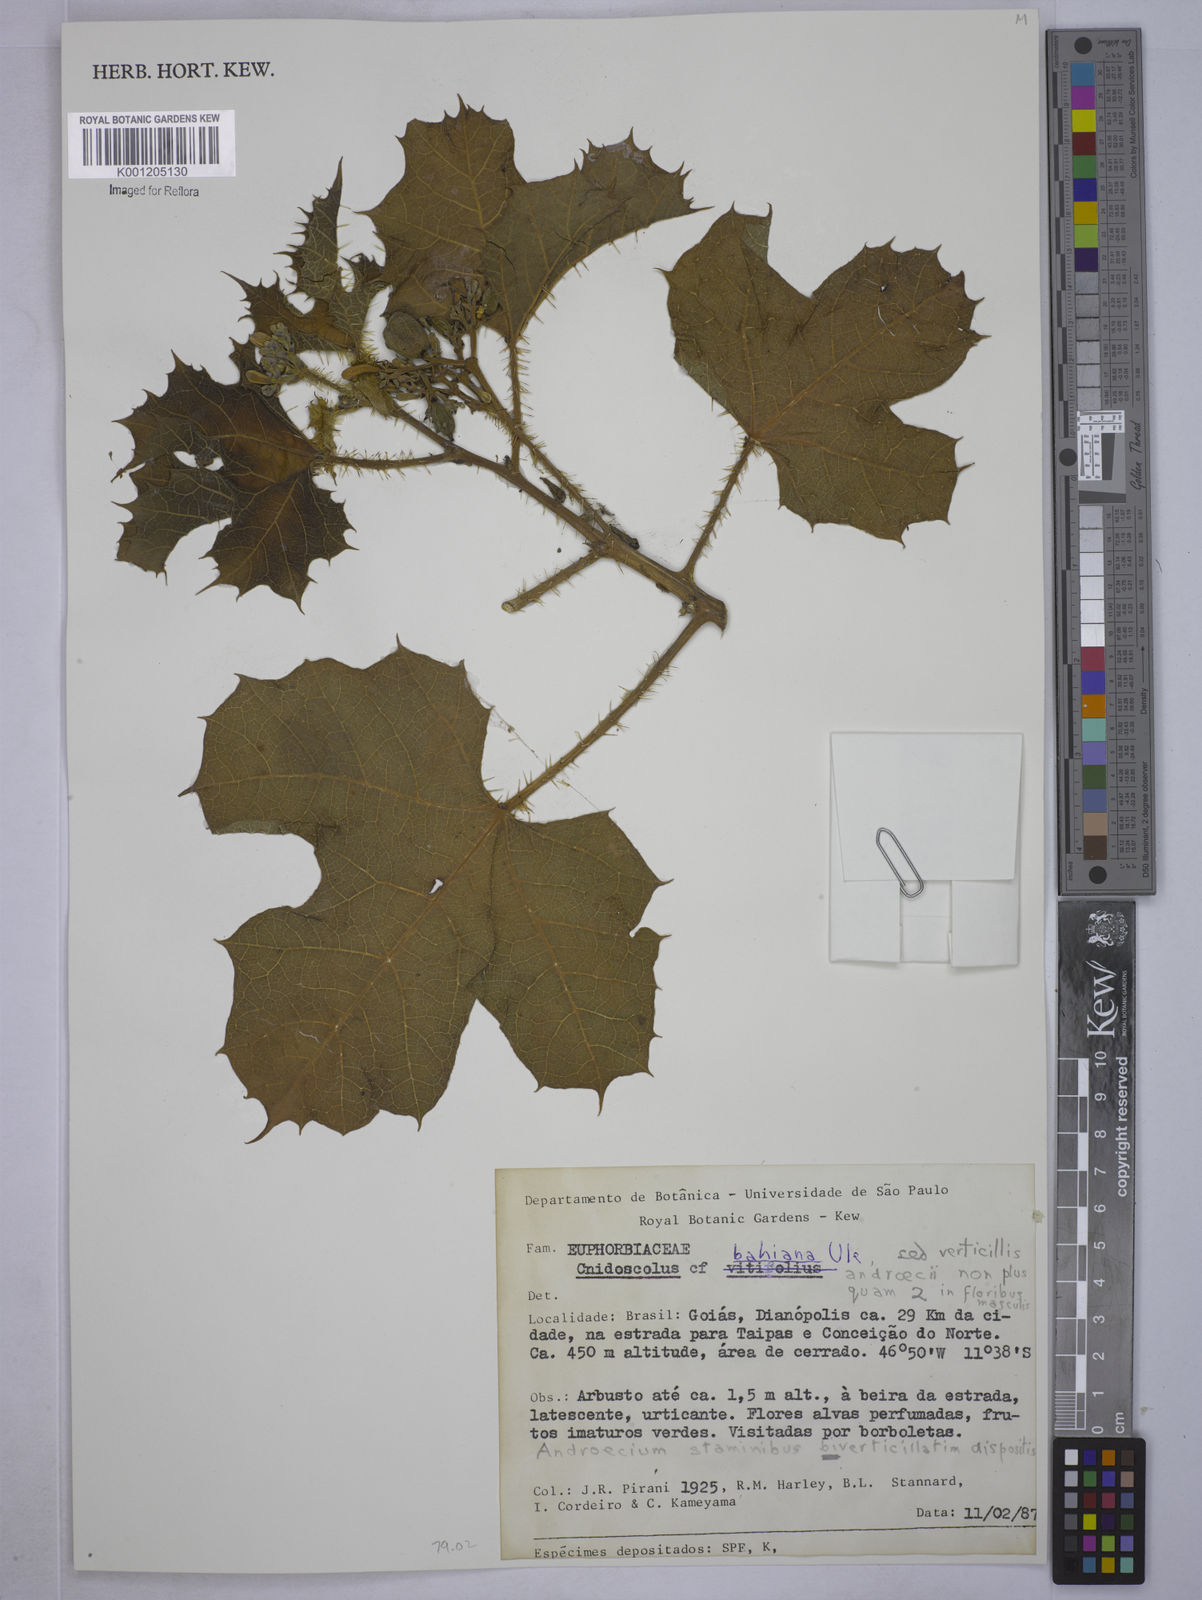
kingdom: Plantae
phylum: Tracheophyta
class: Magnoliopsida
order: Malpighiales
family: Euphorbiaceae
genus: Cnidoscolus
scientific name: Cnidoscolus bahianus
